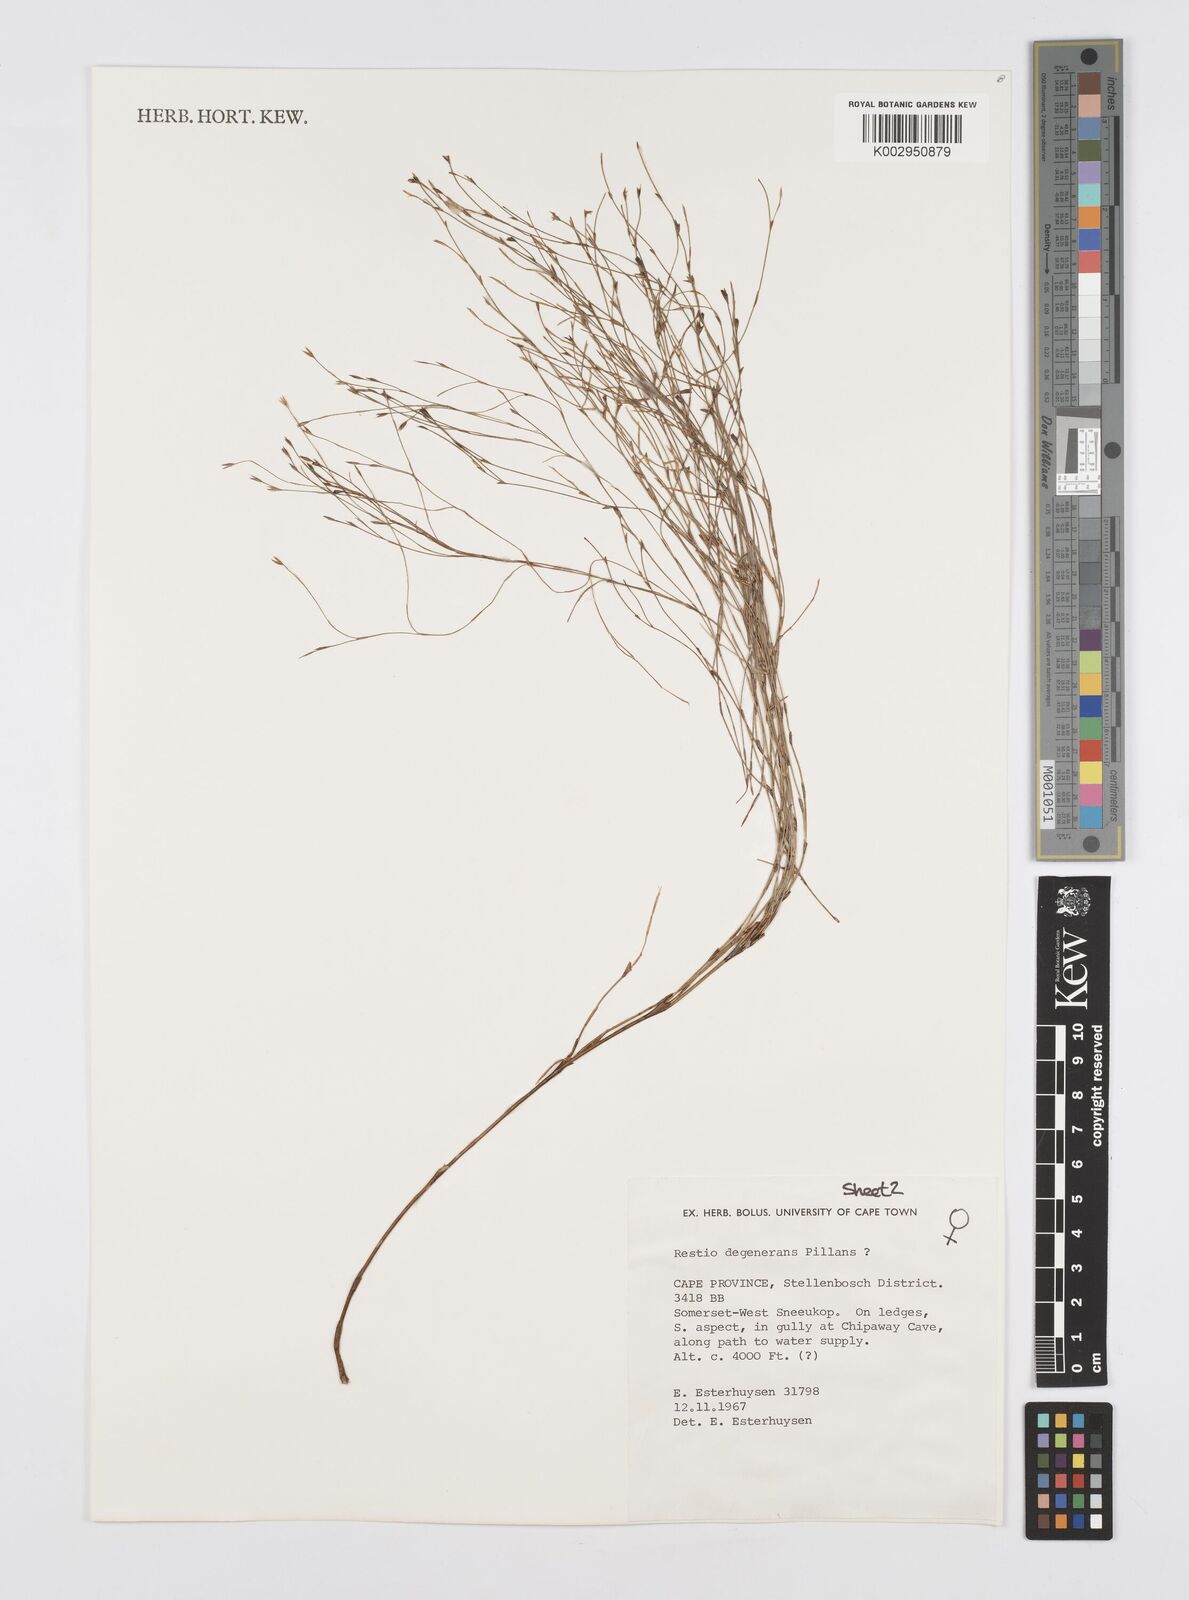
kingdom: Plantae
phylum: Tracheophyta
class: Liliopsida
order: Poales
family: Restionaceae
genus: Restio
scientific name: Restio degenerans
